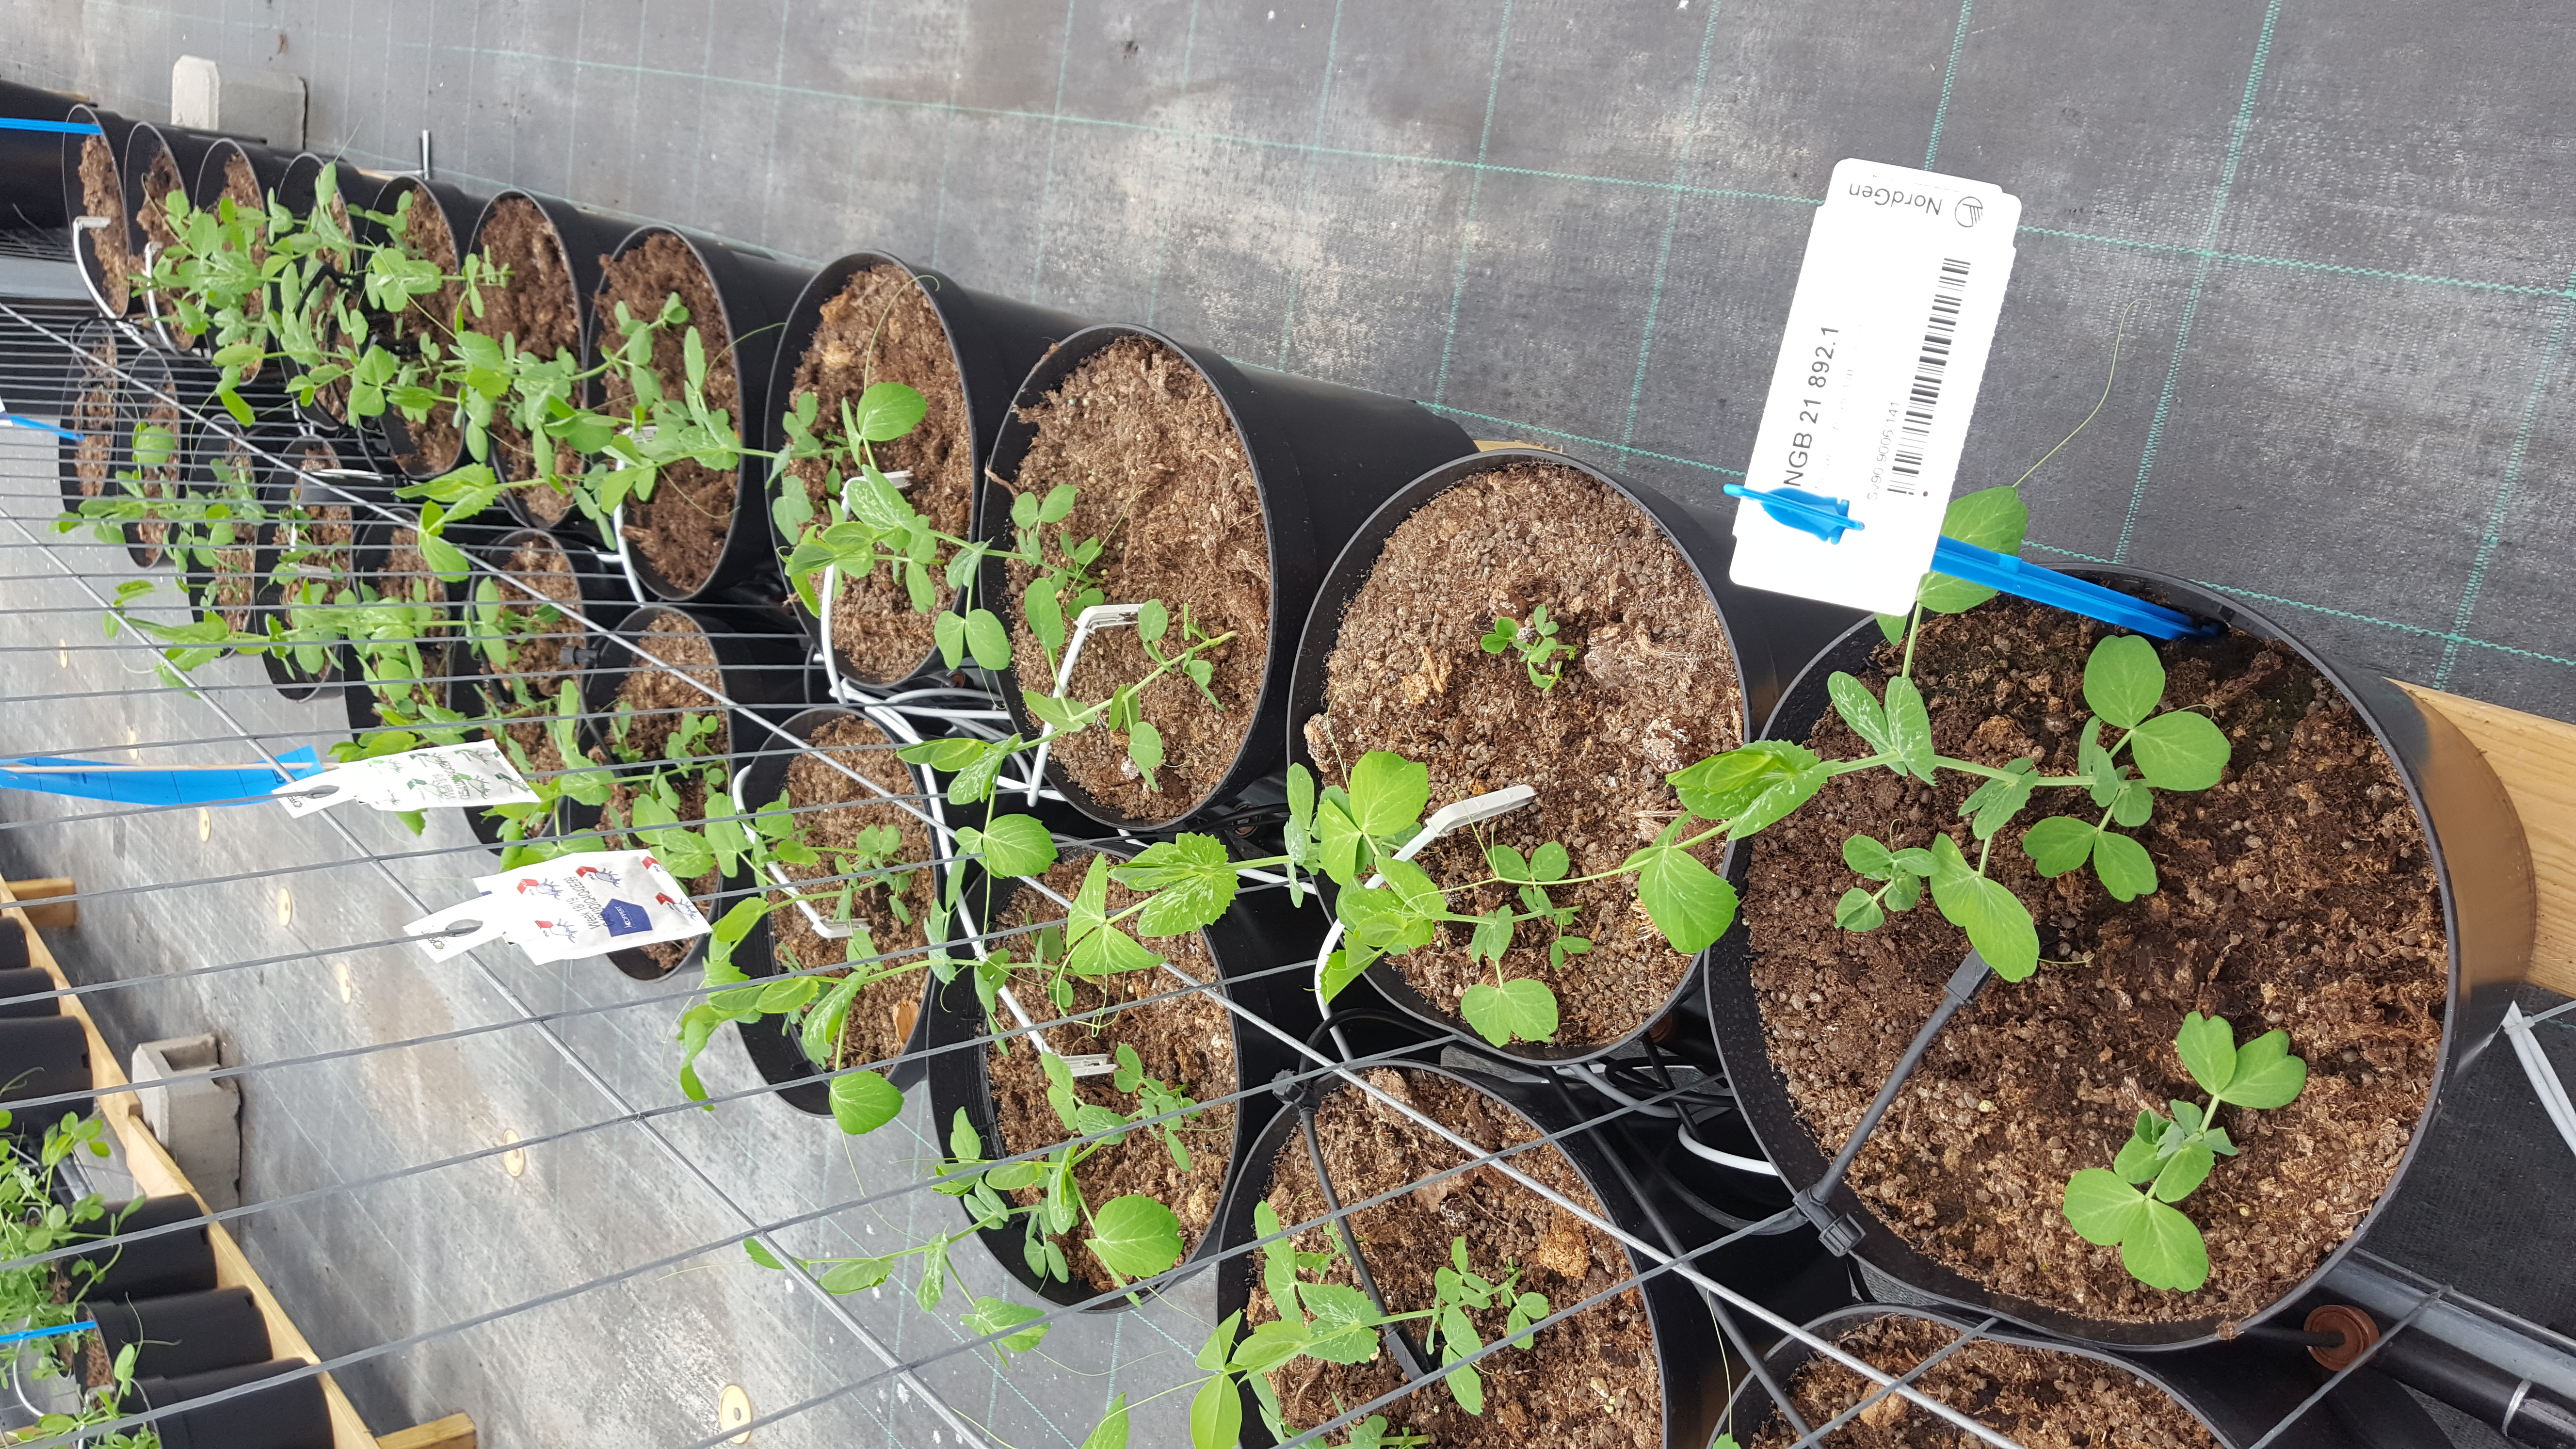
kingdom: Plantae
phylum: Tracheophyta
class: Magnoliopsida
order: Fabales
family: Fabaceae
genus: Lathyrus
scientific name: Lathyrus oleraceus
